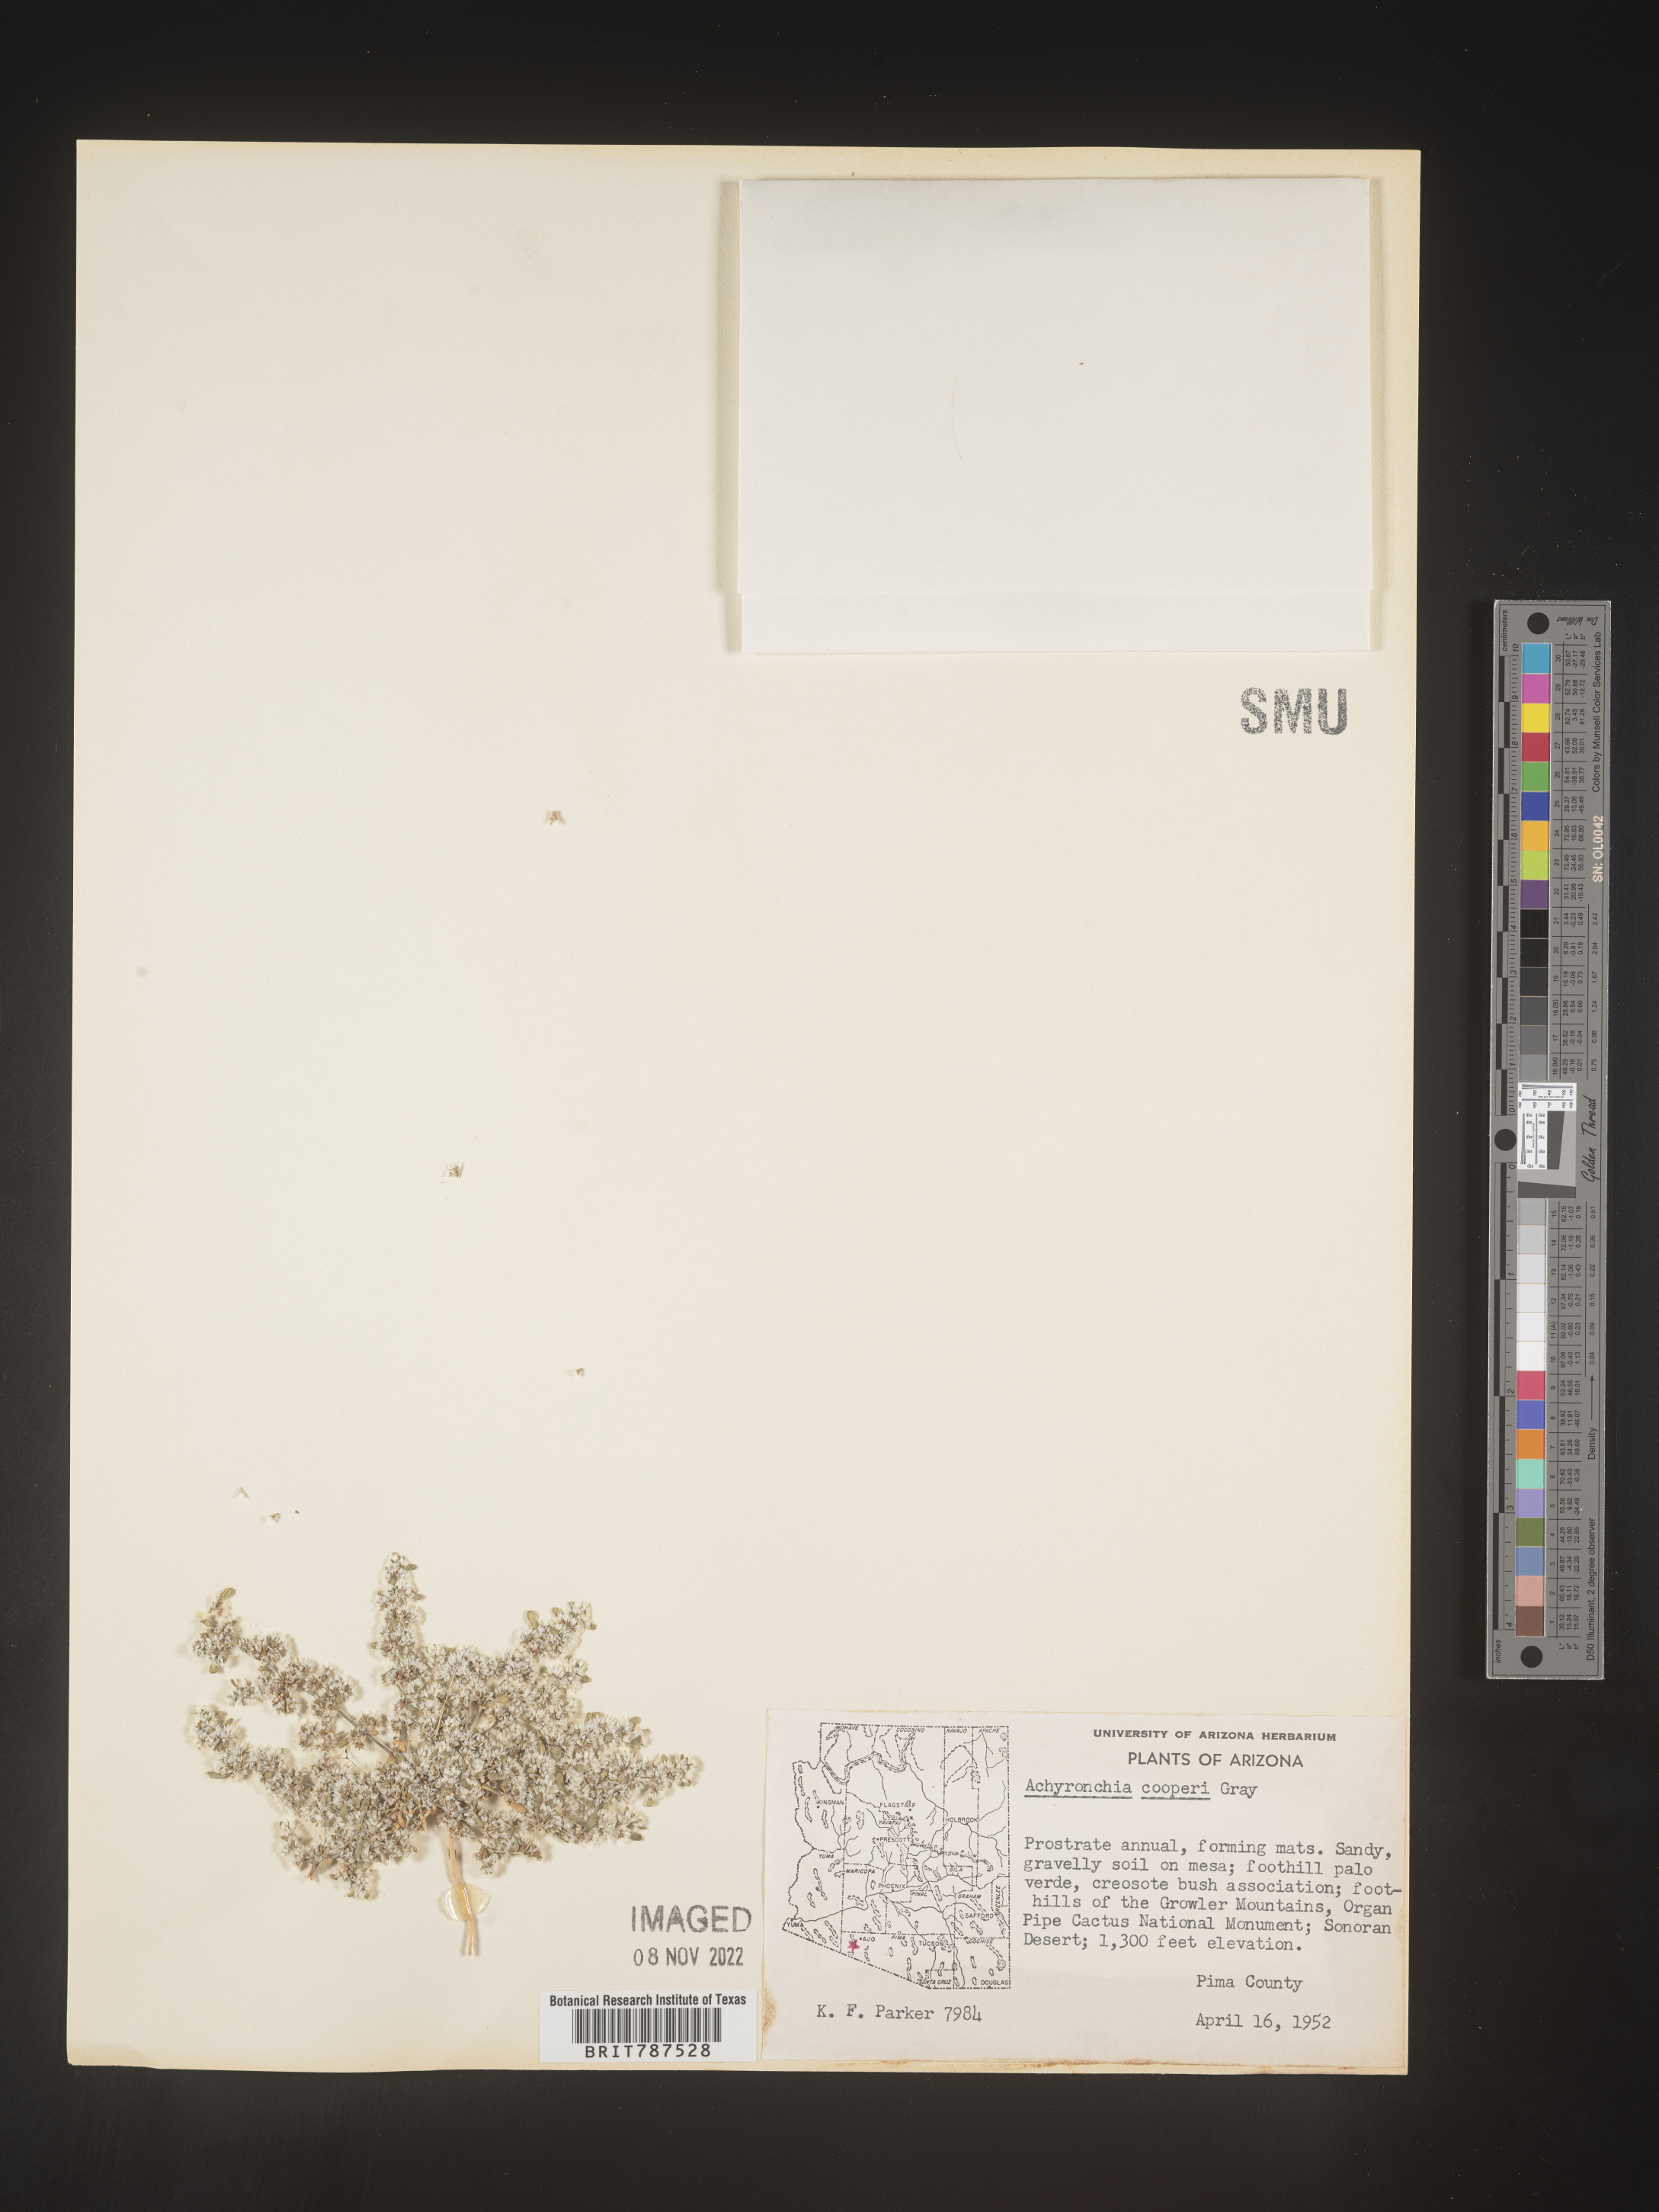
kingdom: Plantae
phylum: Tracheophyta
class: Magnoliopsida
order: Caryophyllales
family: Caryophyllaceae
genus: Achyronychia
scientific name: Achyronychia
